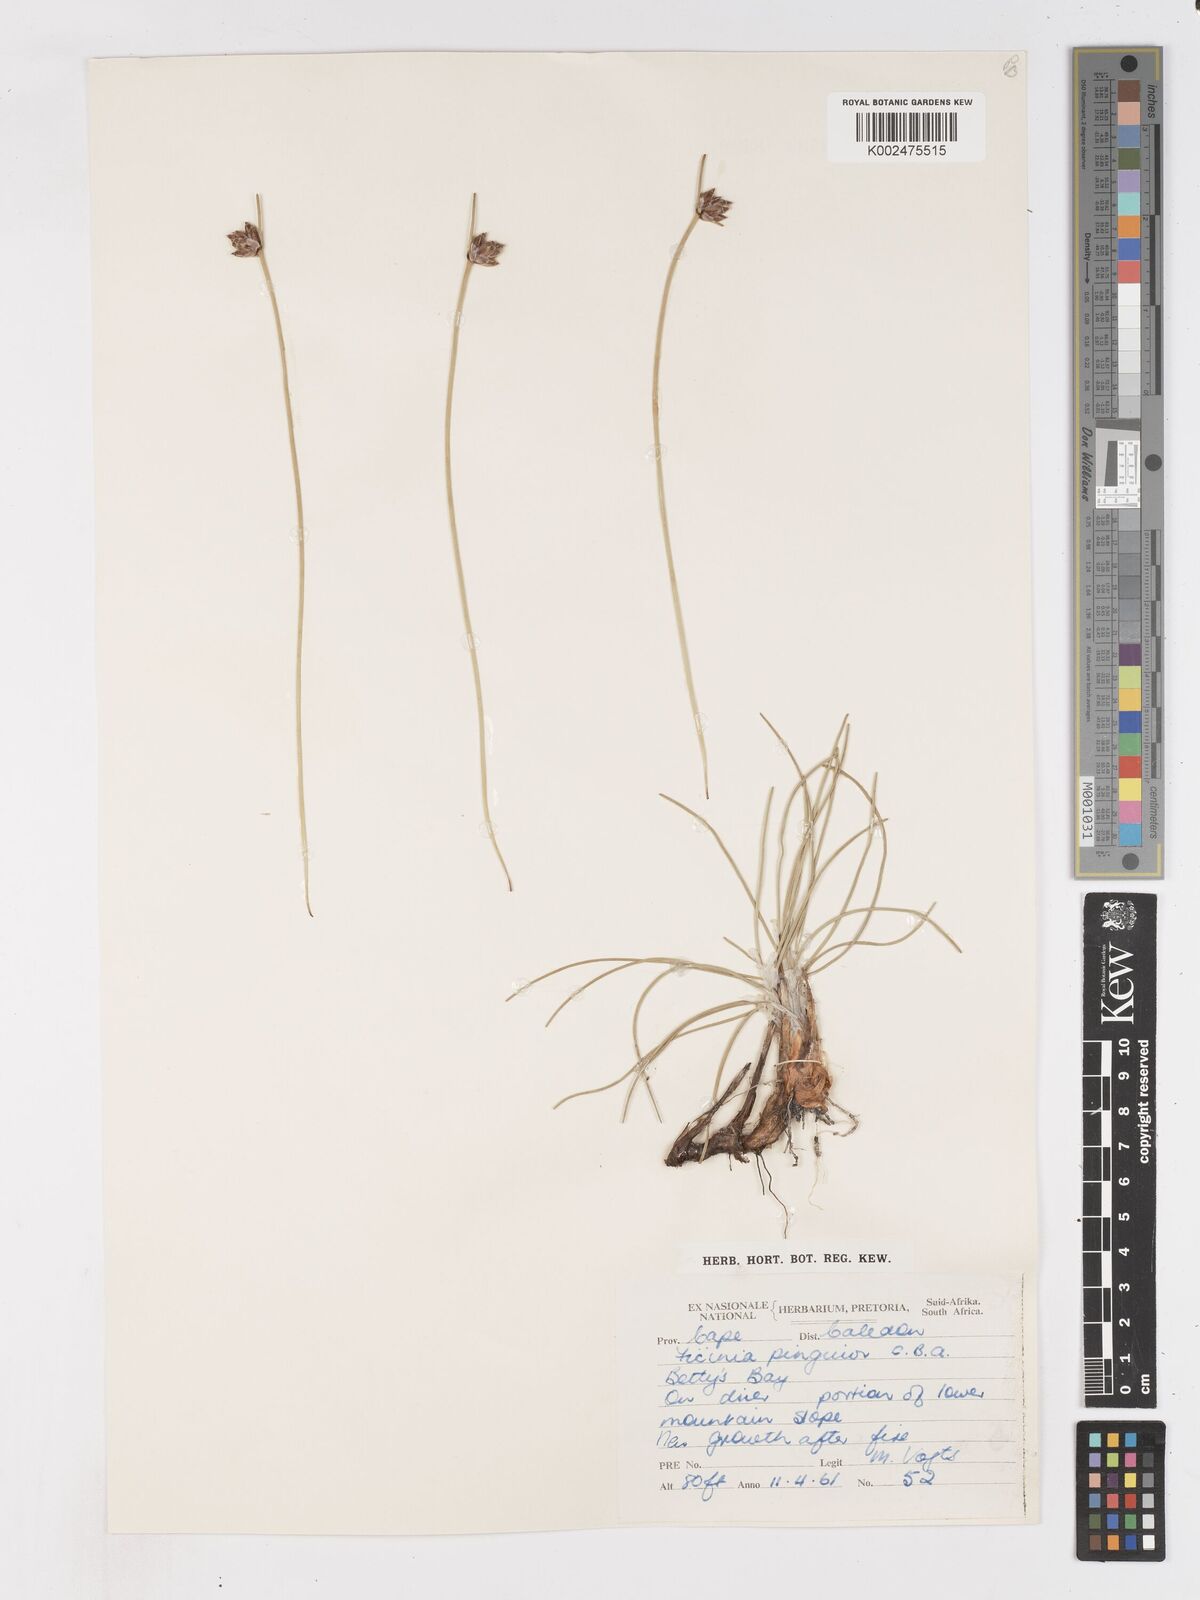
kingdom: Plantae
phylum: Tracheophyta
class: Liliopsida
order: Poales
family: Cyperaceae
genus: Ficinia
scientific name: Ficinia pinguior
